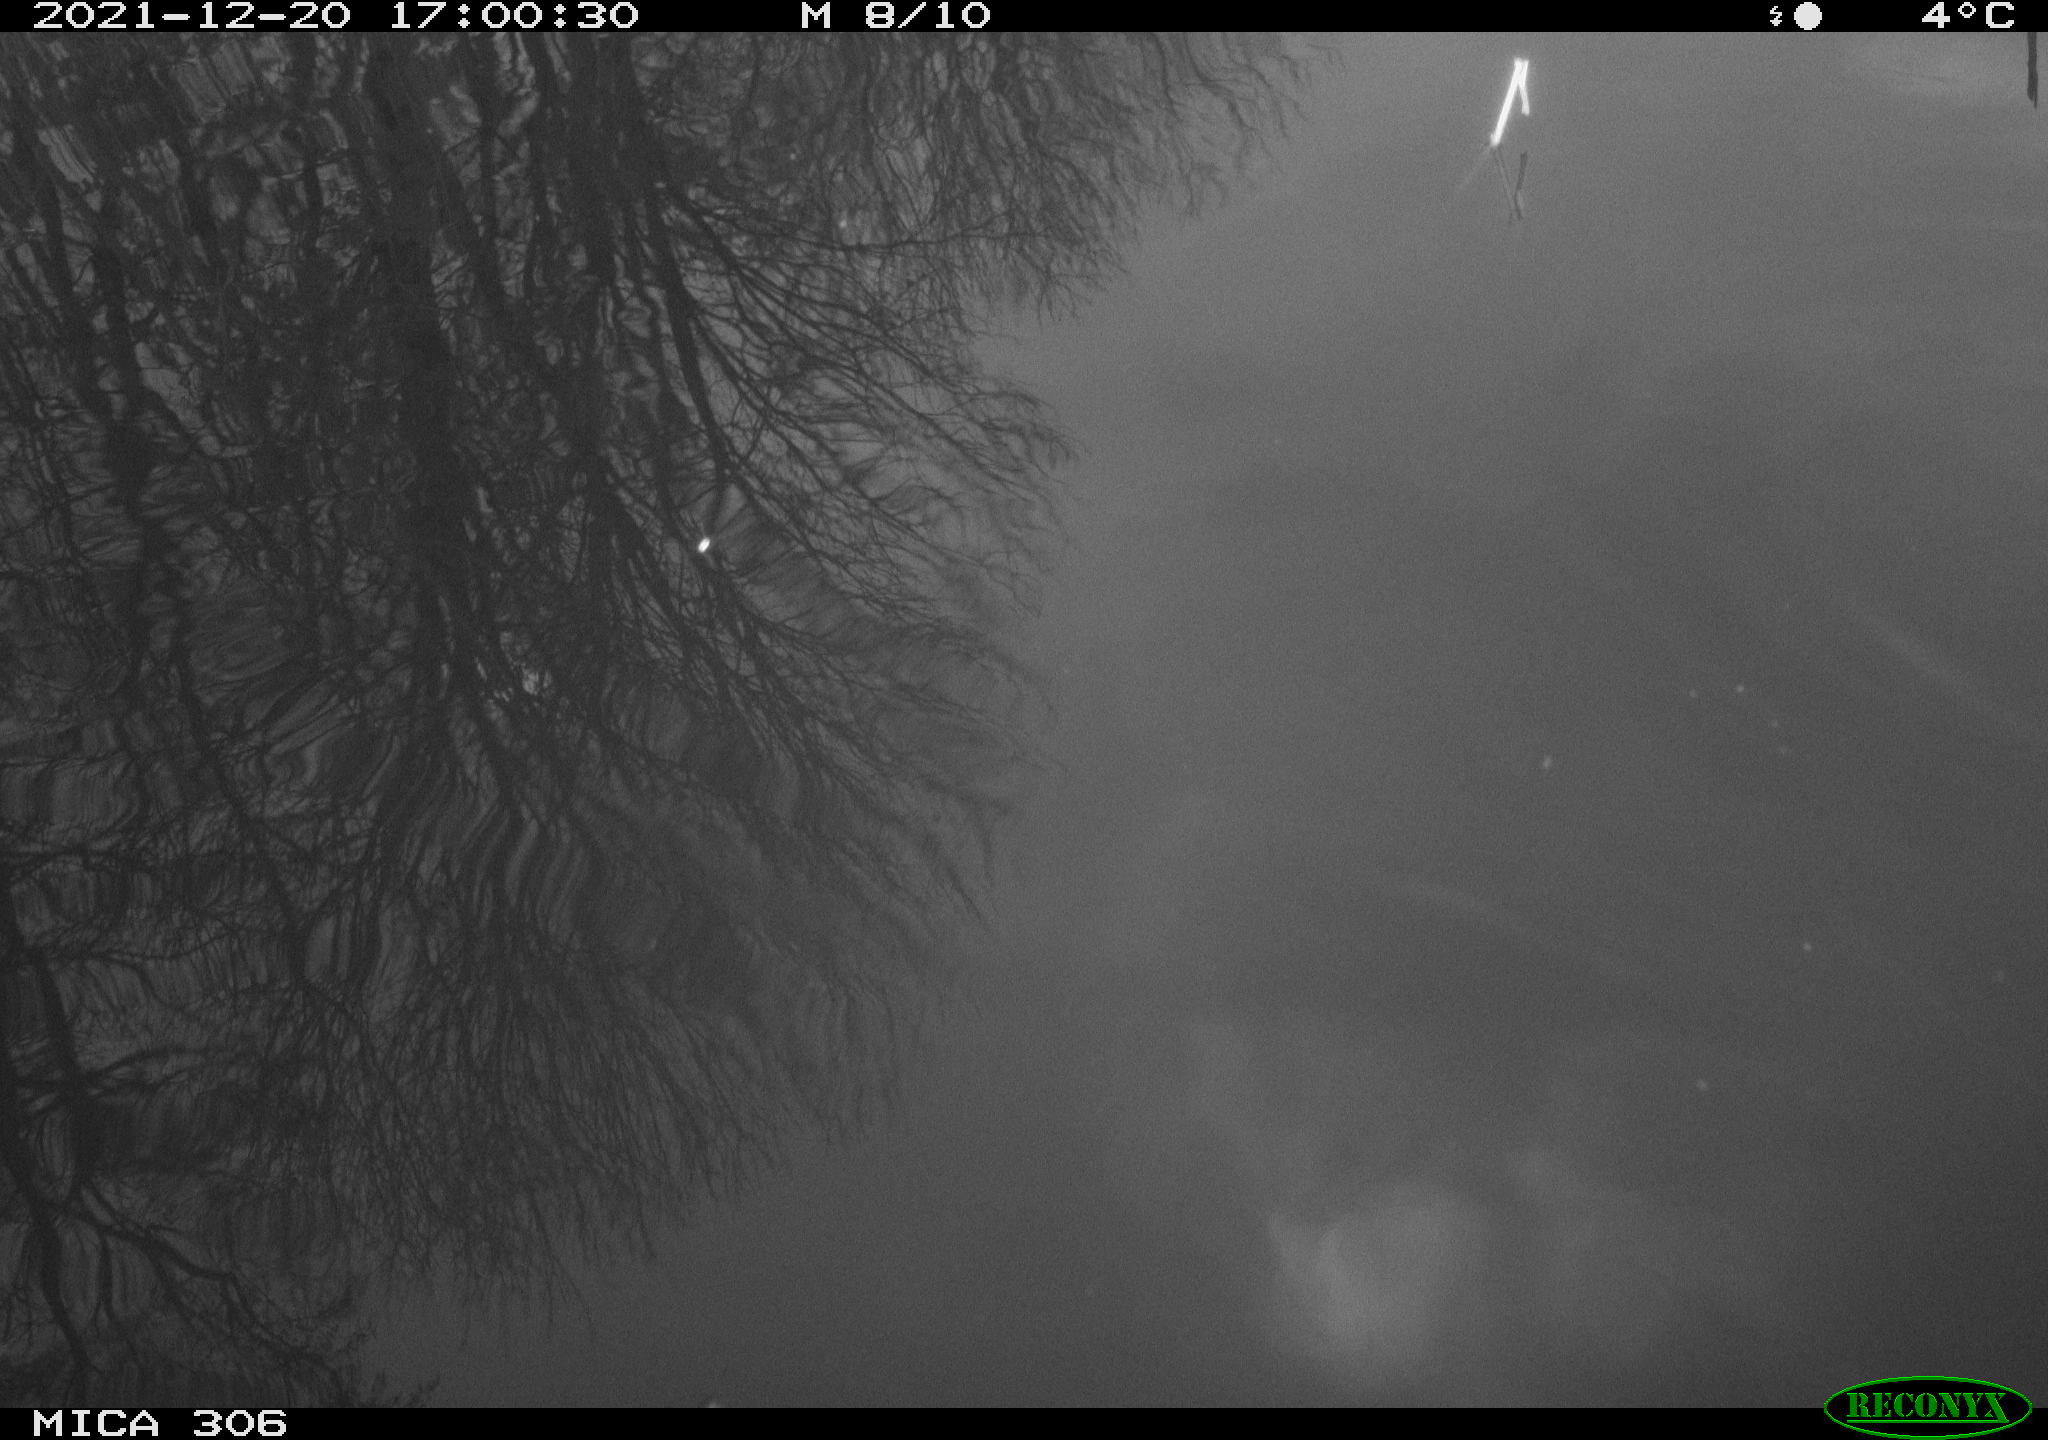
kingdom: Animalia
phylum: Chordata
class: Aves
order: Gruiformes
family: Rallidae
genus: Gallinula
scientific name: Gallinula chloropus
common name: Common moorhen
